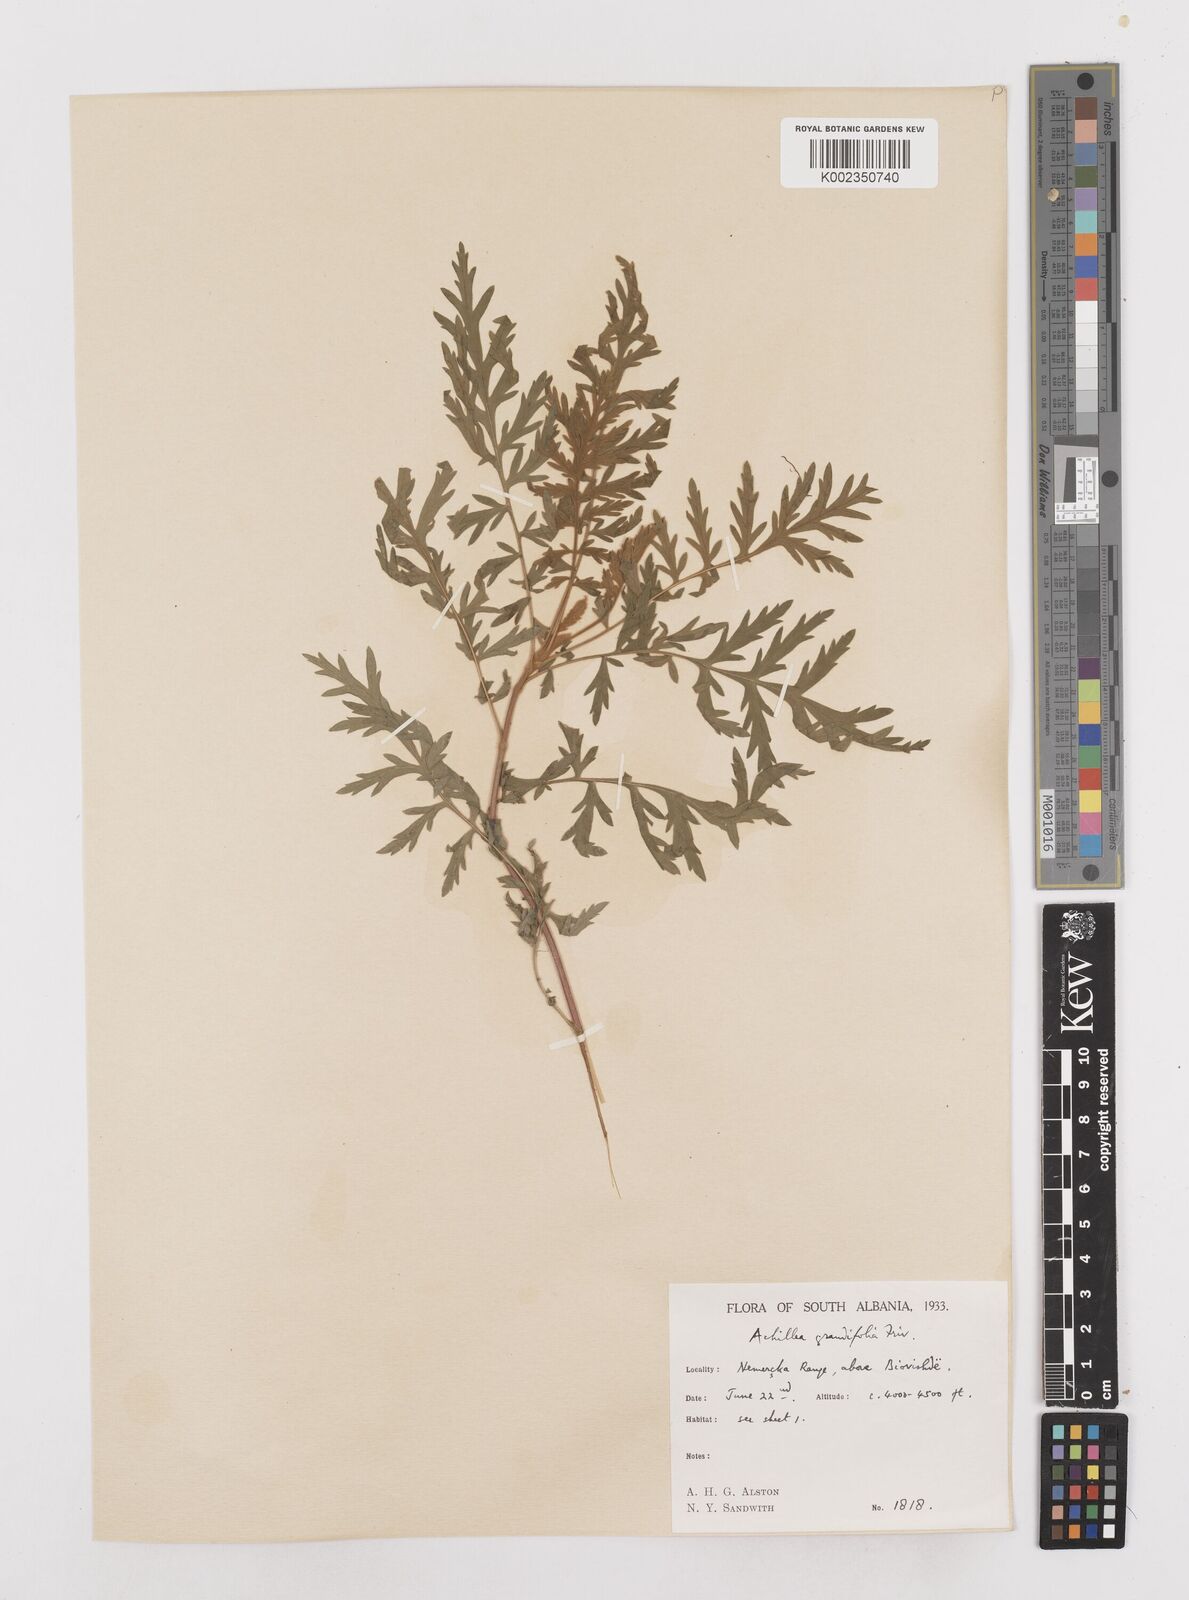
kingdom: Plantae
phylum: Tracheophyta
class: Magnoliopsida
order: Asterales
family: Asteraceae
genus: Achillea
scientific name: Achillea grandifolia
